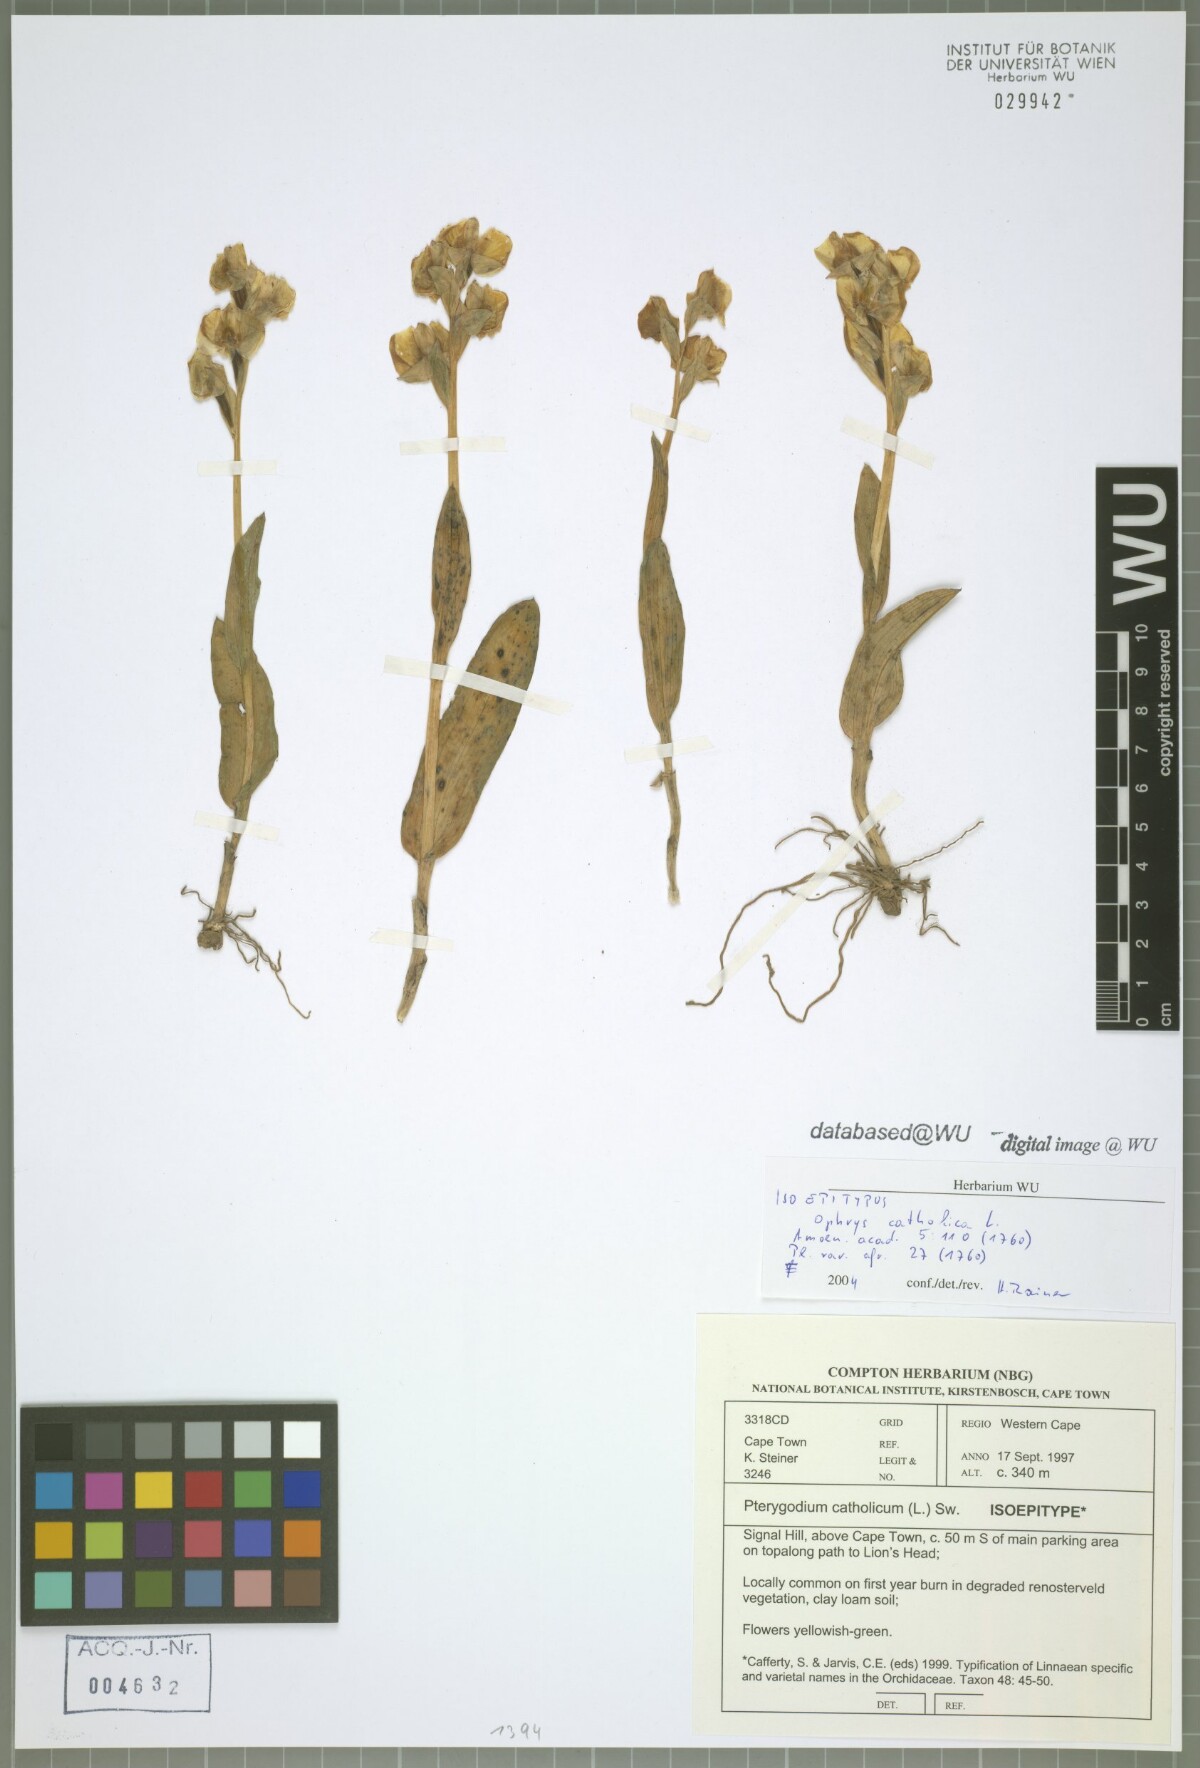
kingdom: Plantae
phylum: Tracheophyta
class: Liliopsida
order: Asparagales
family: Orchidaceae
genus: Pterygodium
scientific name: Pterygodium catholicum
